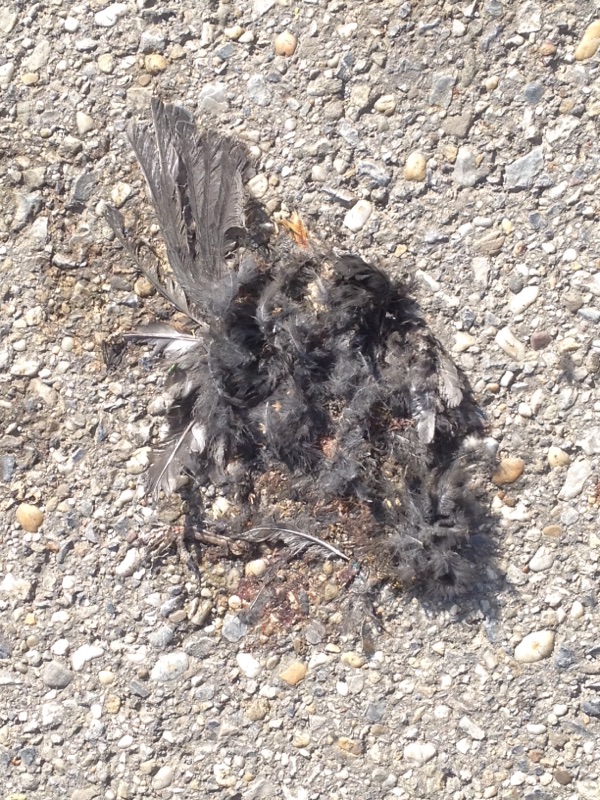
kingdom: Animalia
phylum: Chordata
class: Aves
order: Passeriformes
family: Turdidae
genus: Turdus
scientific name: Turdus merula
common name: Common blackbird
